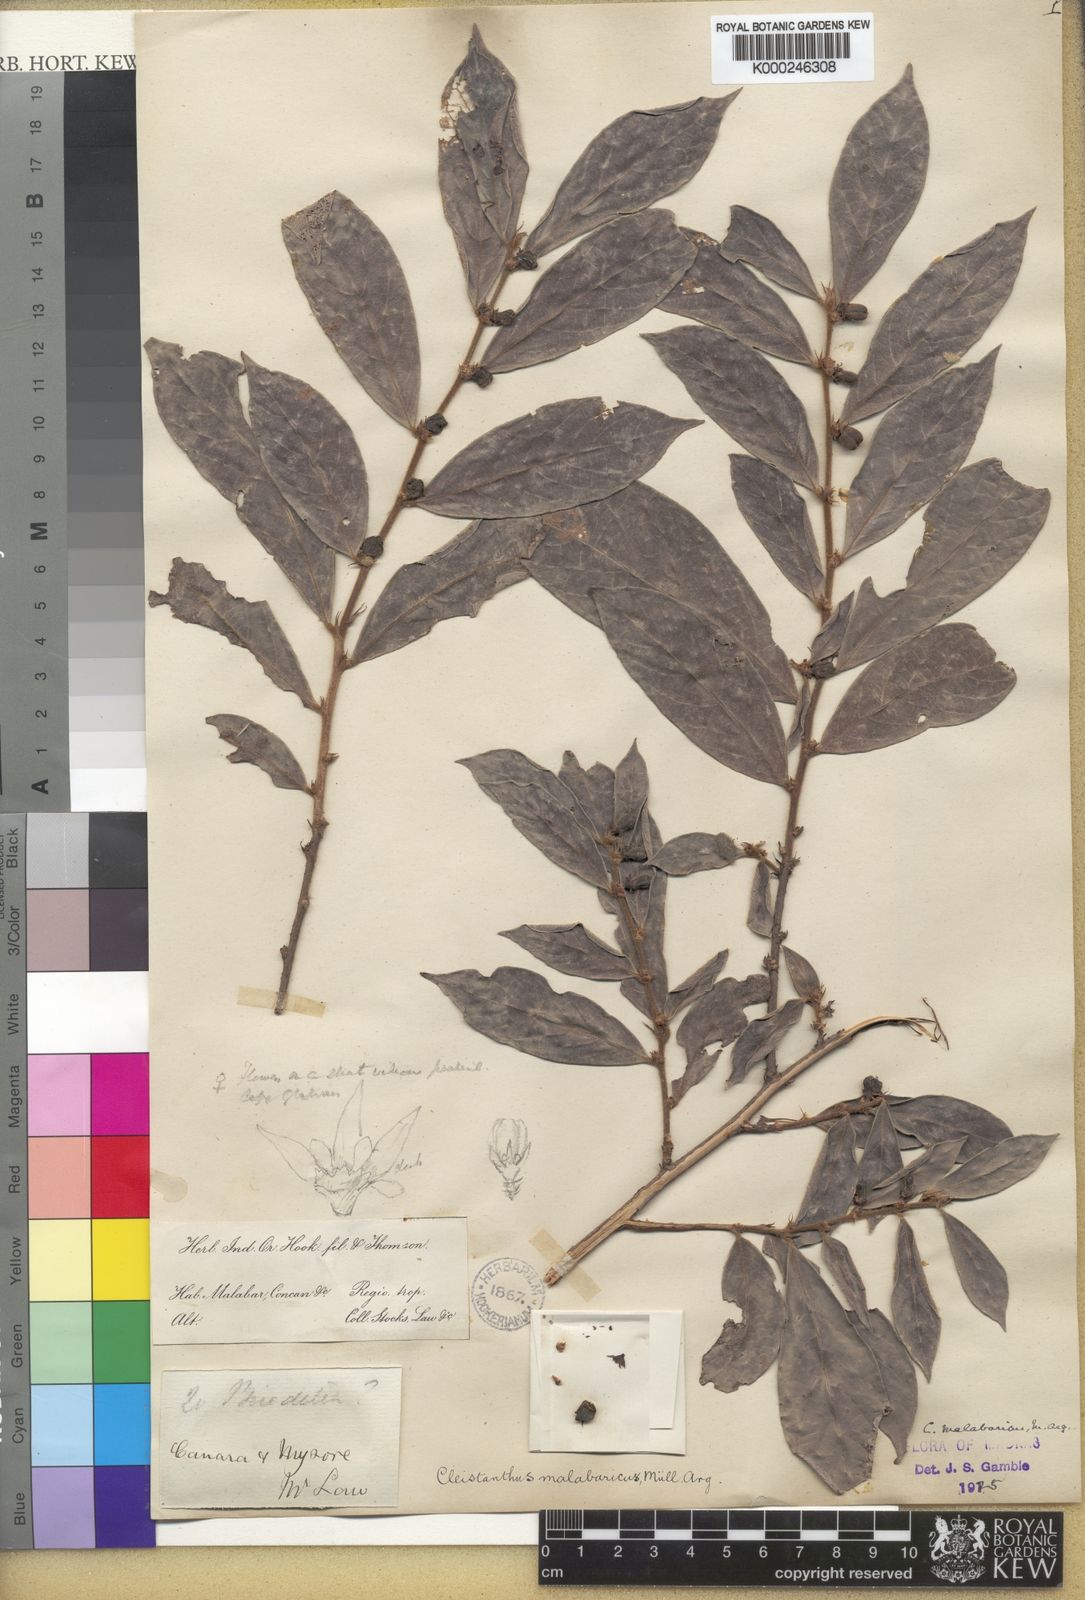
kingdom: Plantae
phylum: Tracheophyta
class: Magnoliopsida
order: Malpighiales
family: Phyllanthaceae
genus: Cleistanthus
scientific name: Cleistanthus
